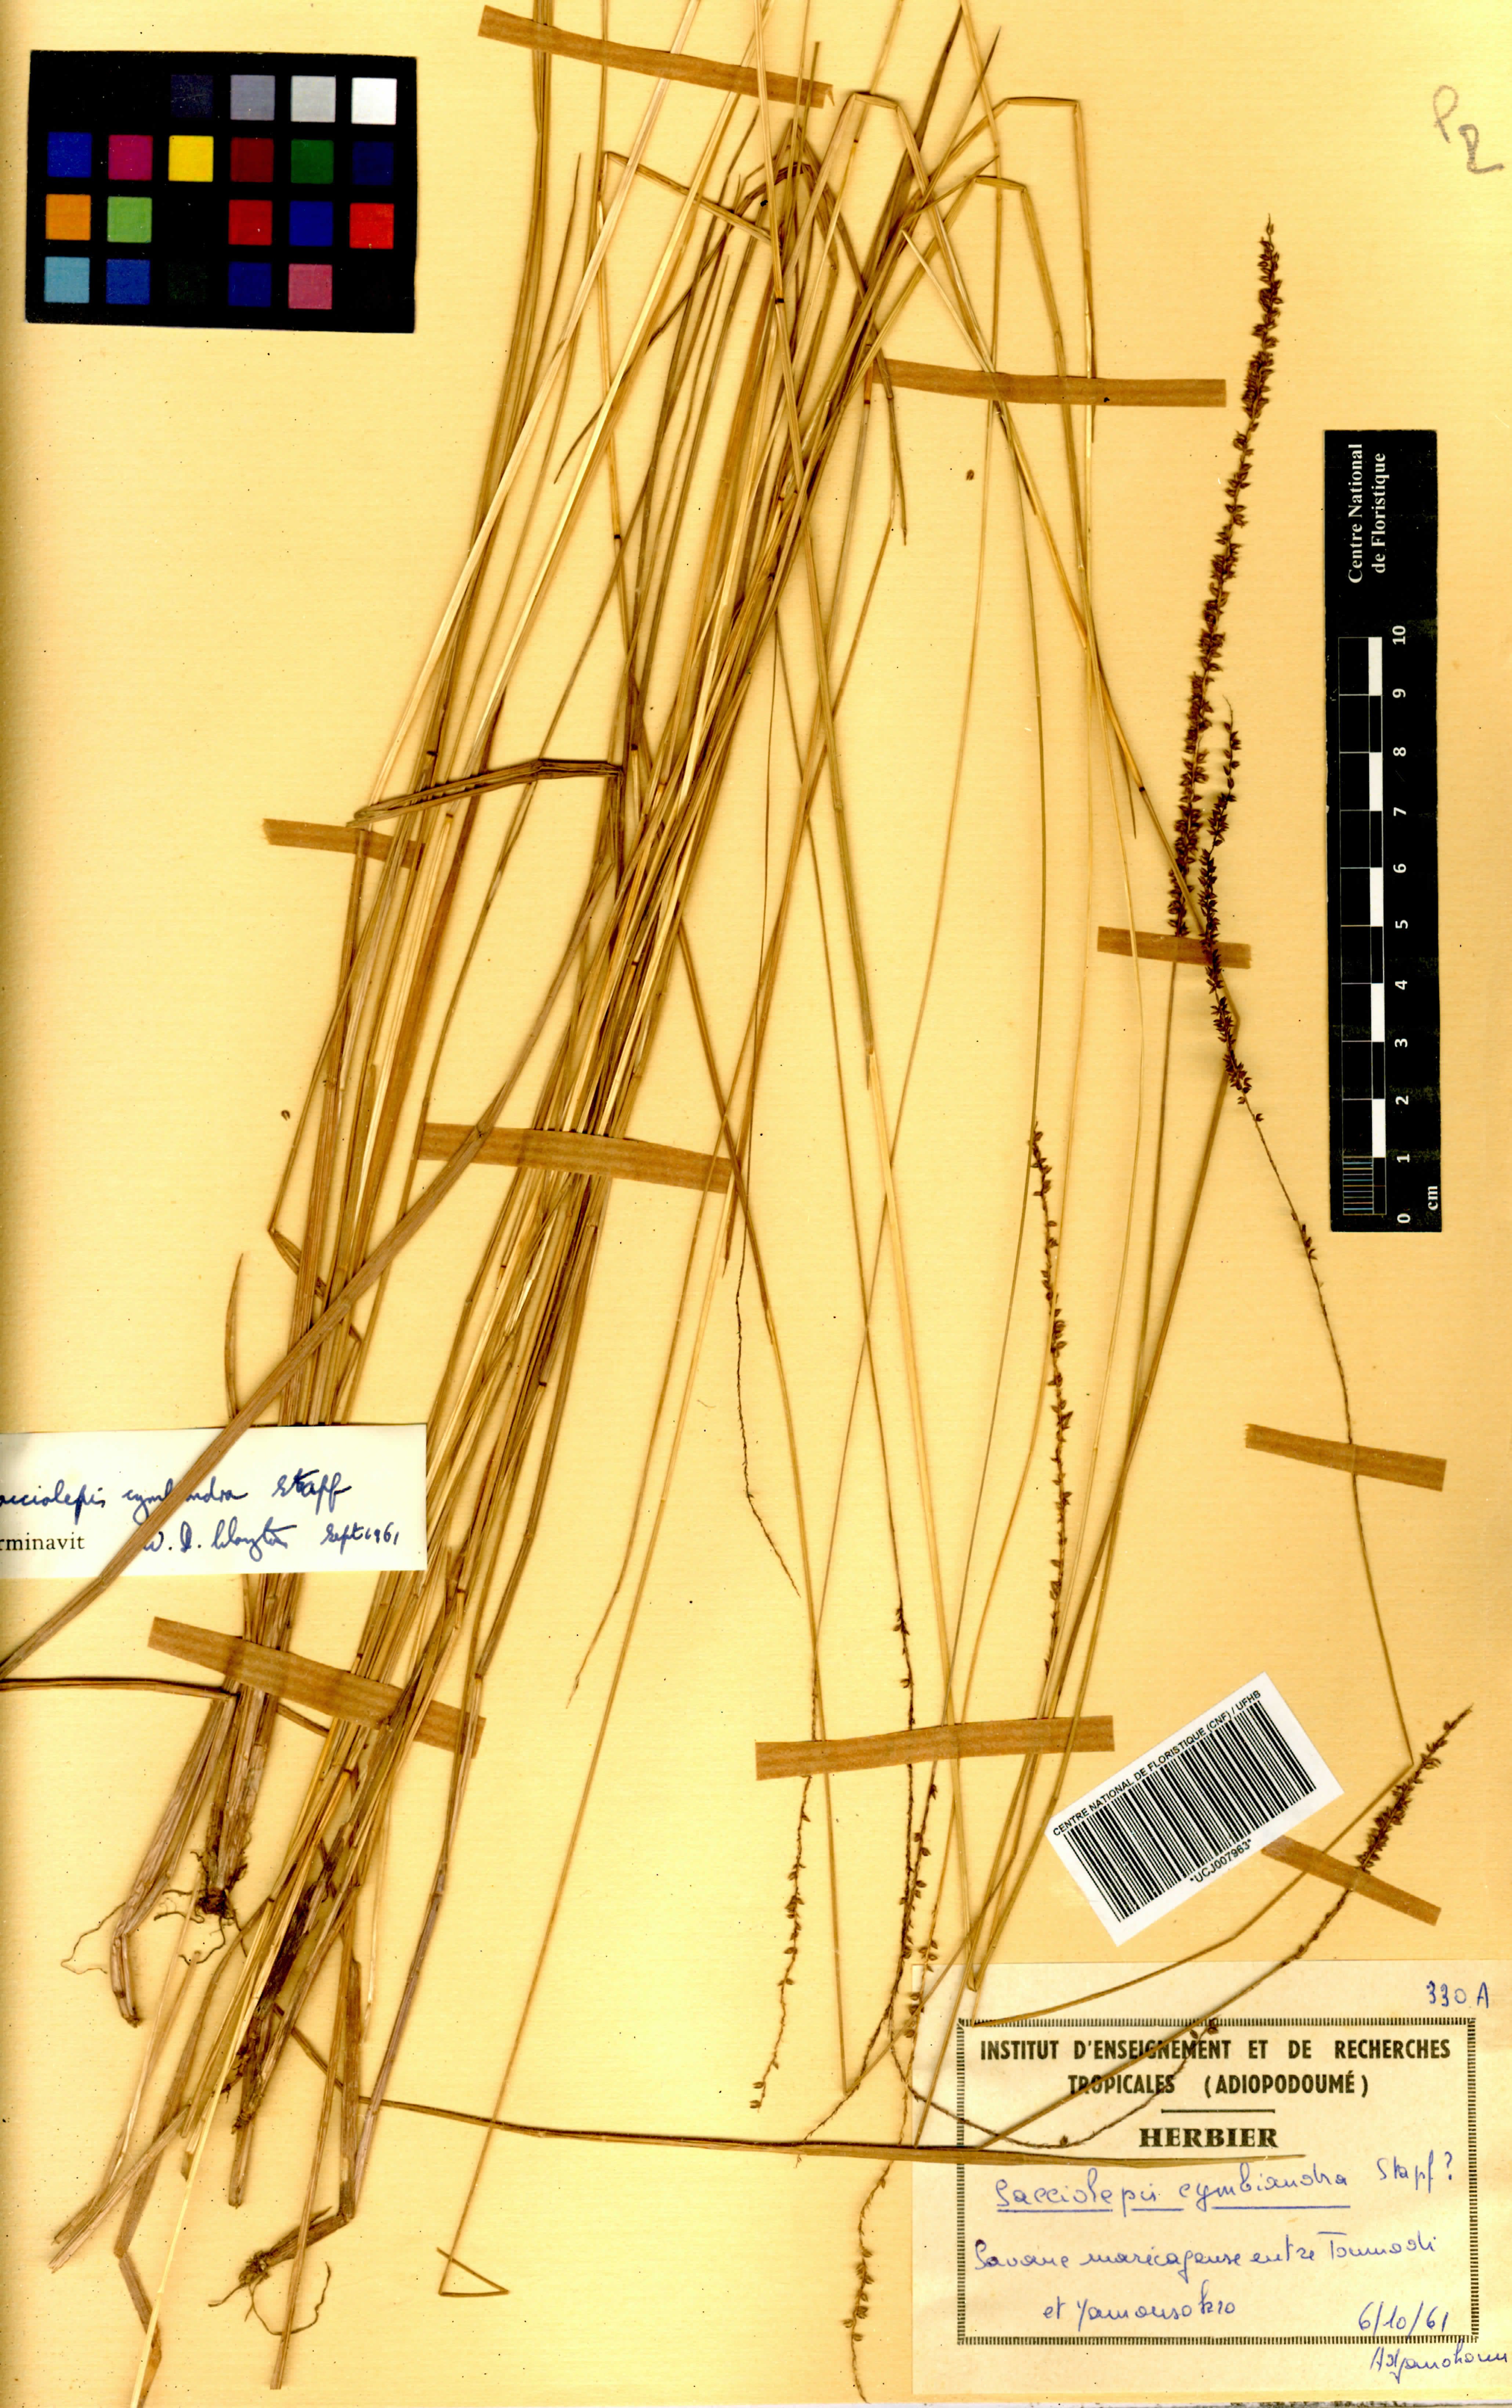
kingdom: Plantae
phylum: Tracheophyta
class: Liliopsida
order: Poales
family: Poaceae
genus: Sacciolepis
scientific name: Sacciolepis cymbiandra
